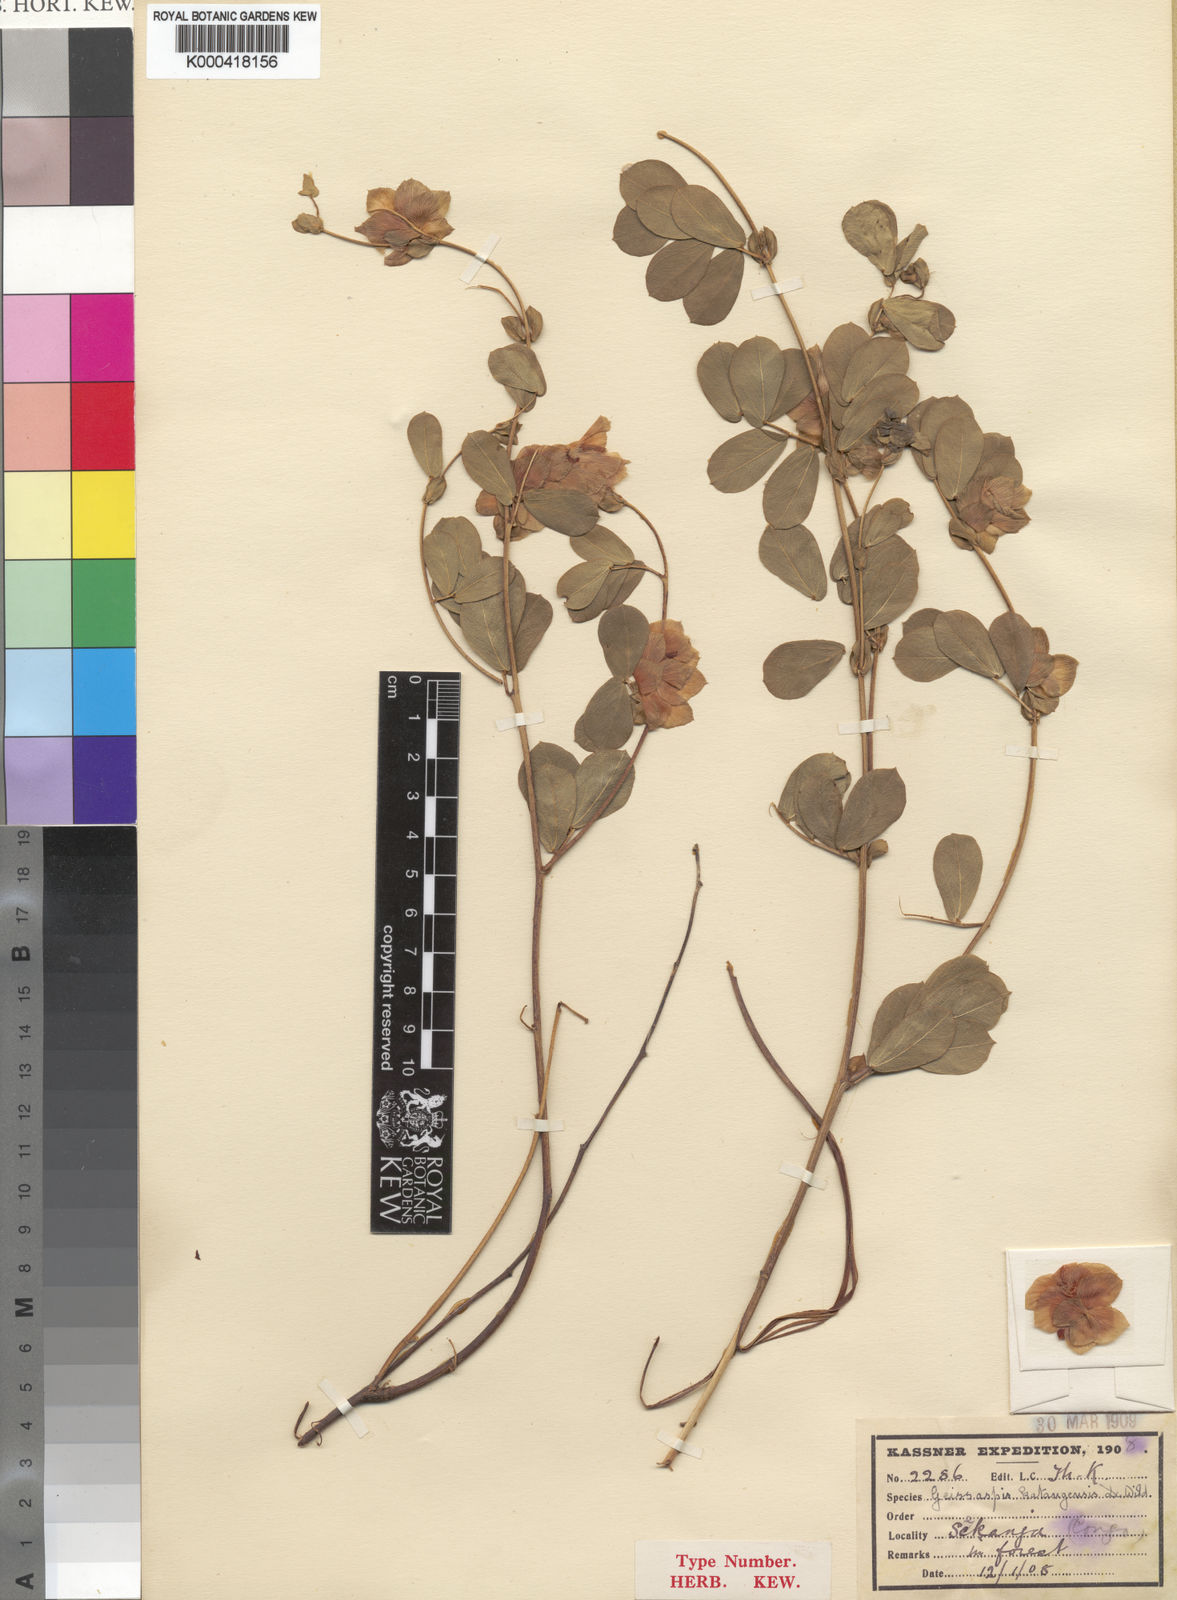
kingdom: Plantae
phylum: Tracheophyta
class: Magnoliopsida
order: Fabales
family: Fabaceae
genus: Humularia
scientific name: Humularia katangensis
